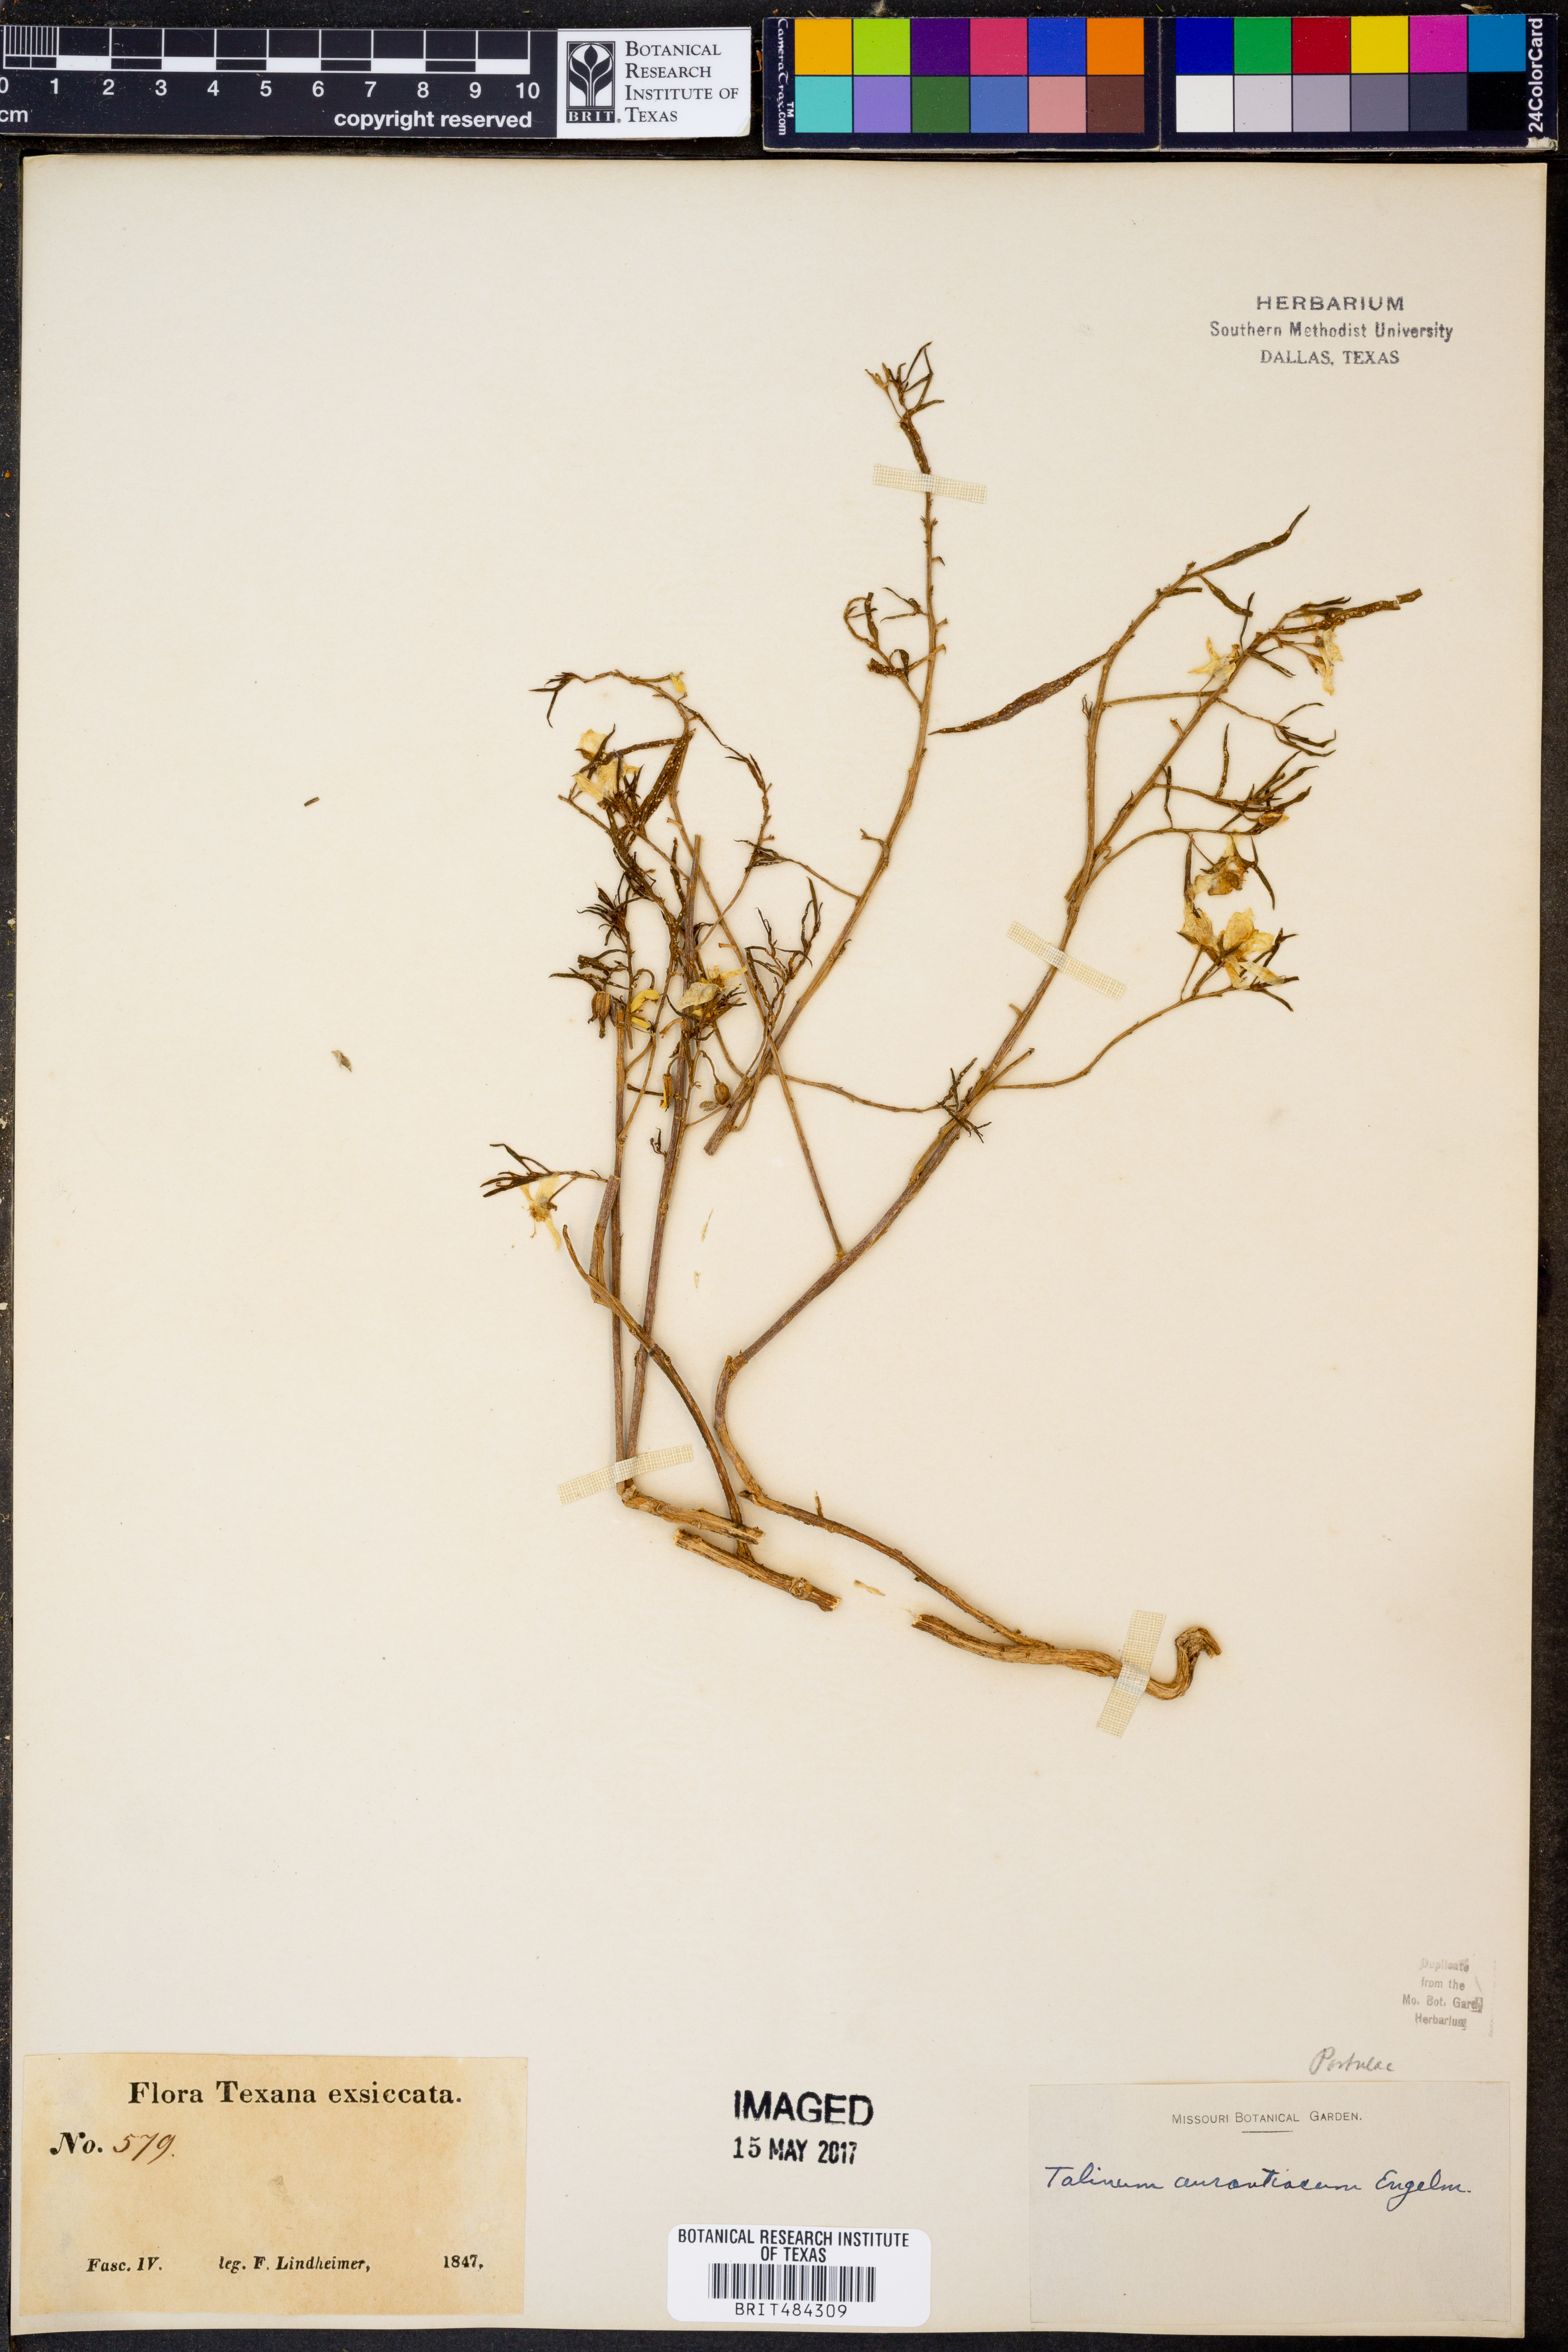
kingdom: Plantae
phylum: Tracheophyta
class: Magnoliopsida
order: Caryophyllales
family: Montiaceae
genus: Phemeranthus
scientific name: Phemeranthus aurantiacus
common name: Orange fameflower
